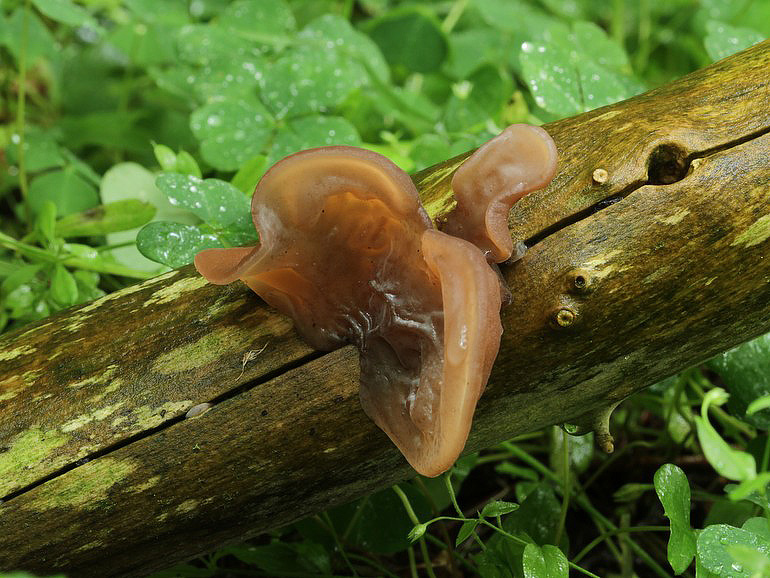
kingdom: Fungi
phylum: Basidiomycota
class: Agaricomycetes
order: Auriculariales
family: Auriculariaceae
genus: Auricularia
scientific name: Auricularia auricula-judae
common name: almindelig judasøre
